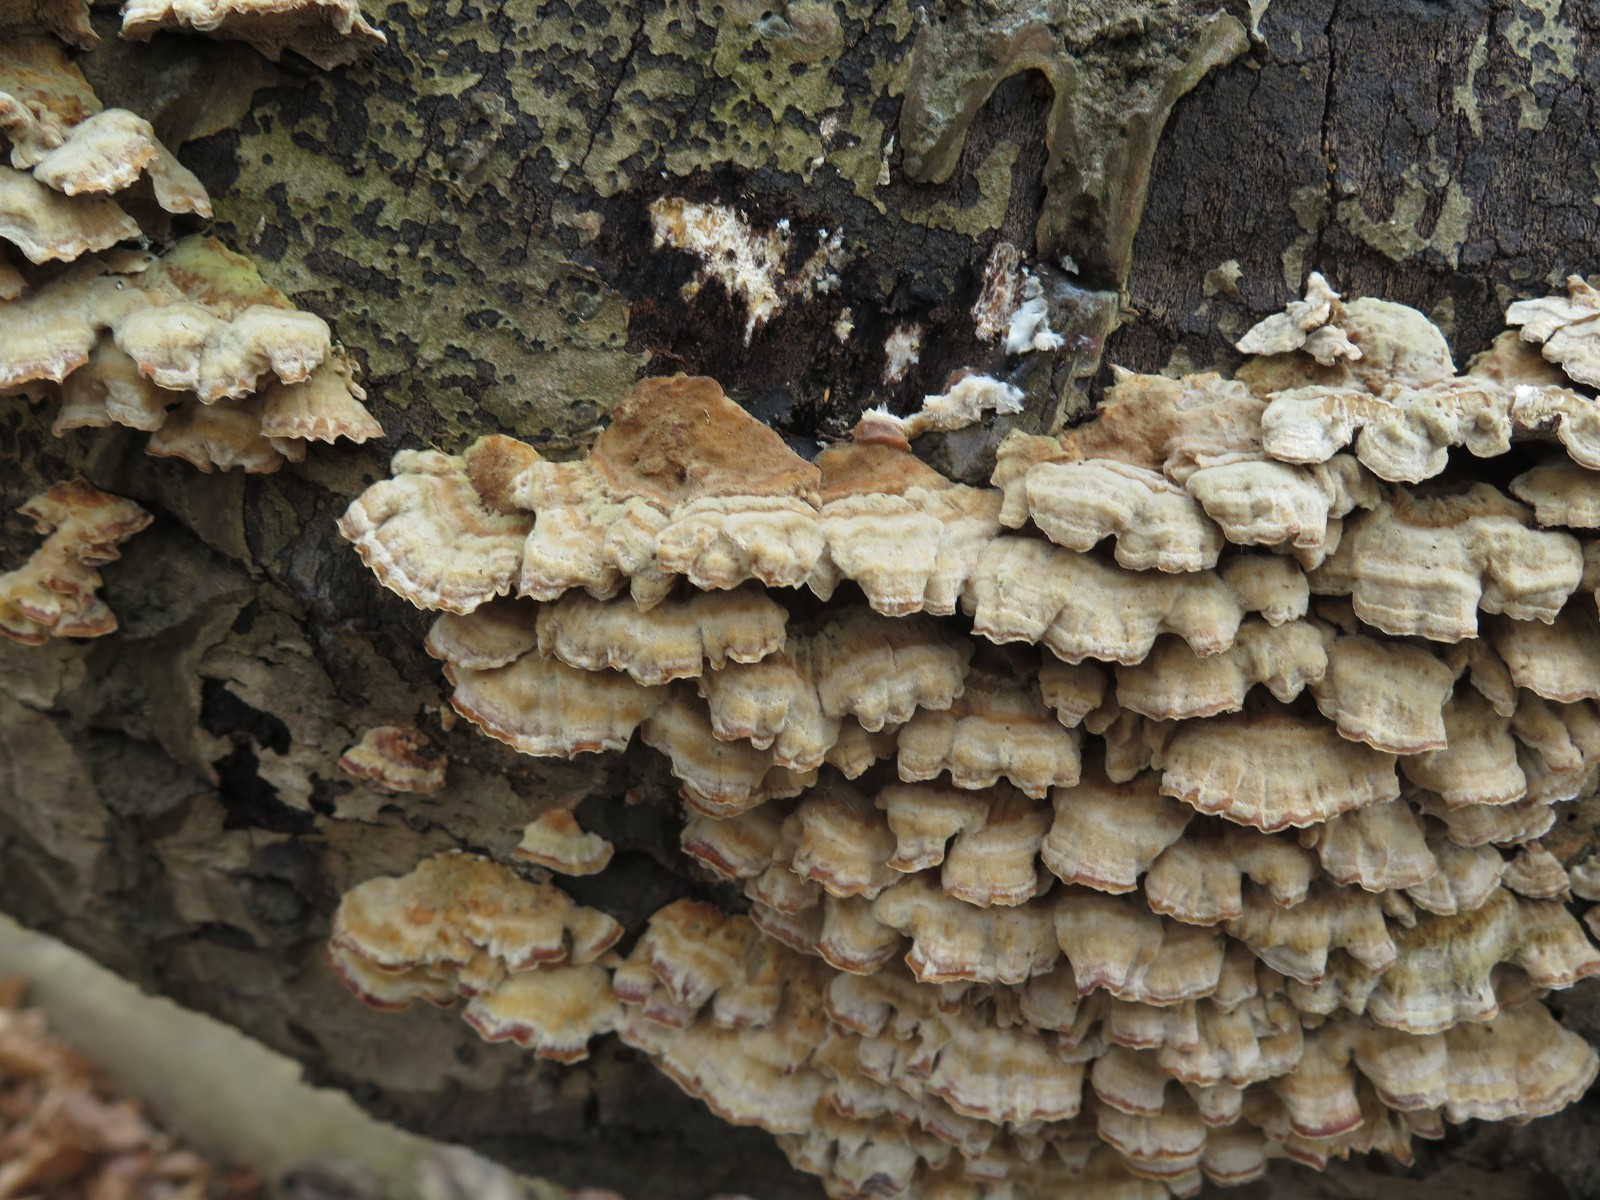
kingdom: Fungi
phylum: Basidiomycota
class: Agaricomycetes
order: Polyporales
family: Polyporaceae
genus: Trametes
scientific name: Trametes ochracea
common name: bæltet læderporesvamp
